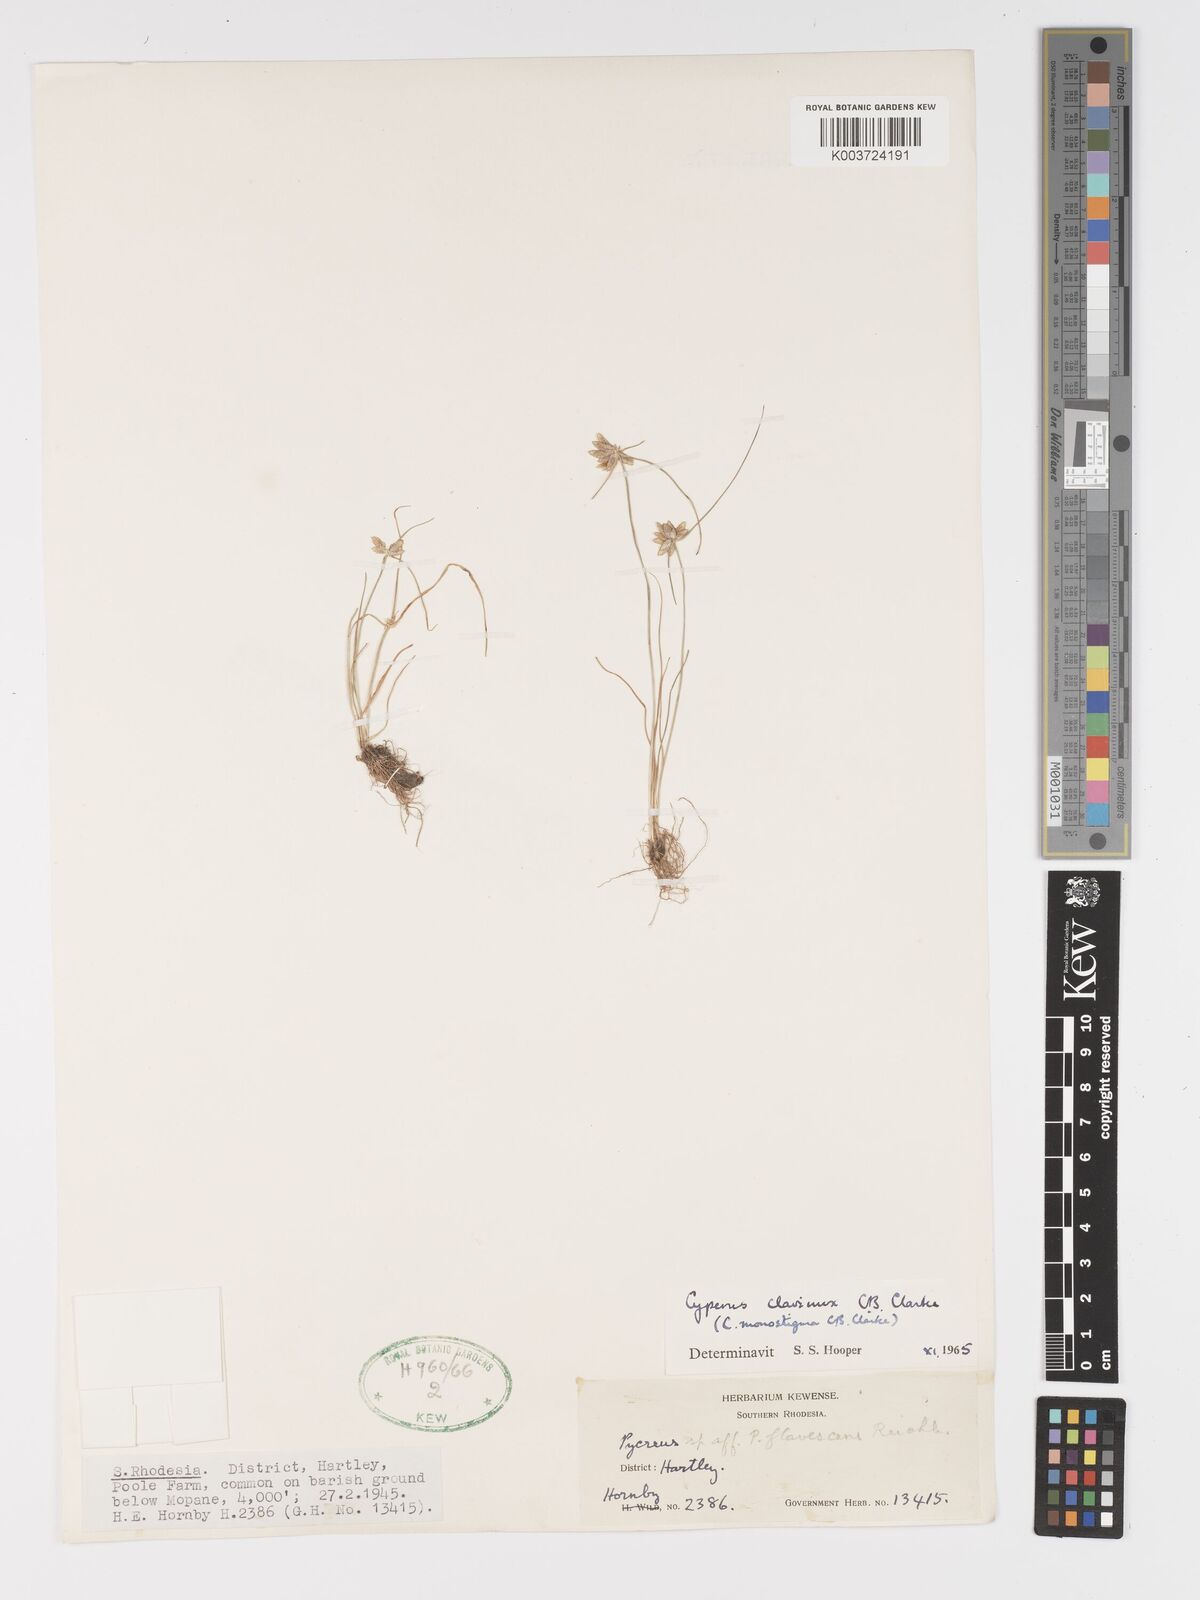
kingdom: Plantae
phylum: Tracheophyta
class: Liliopsida
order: Poales
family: Cyperaceae
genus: Cyperus
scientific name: Cyperus clavinux
